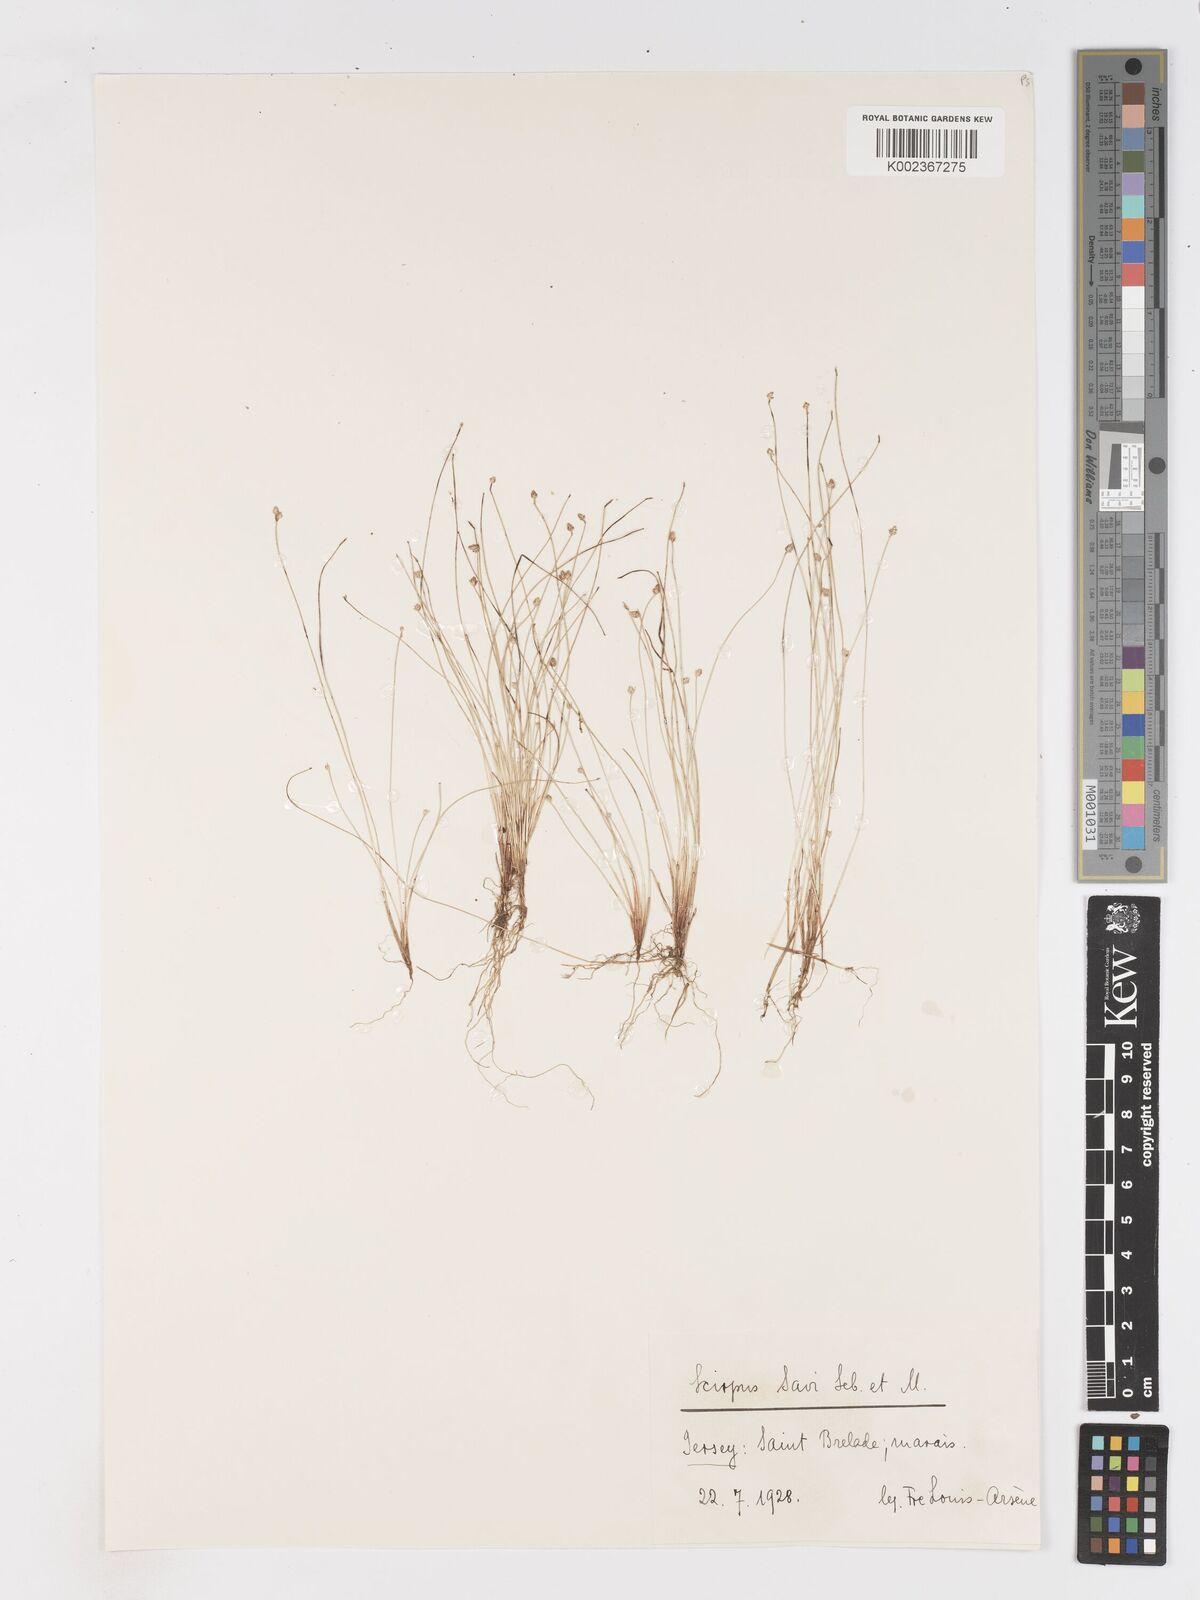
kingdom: Plantae
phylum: Tracheophyta
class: Liliopsida
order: Poales
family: Cyperaceae
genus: Isolepis
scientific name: Isolepis cernua
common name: Slender club-rush
